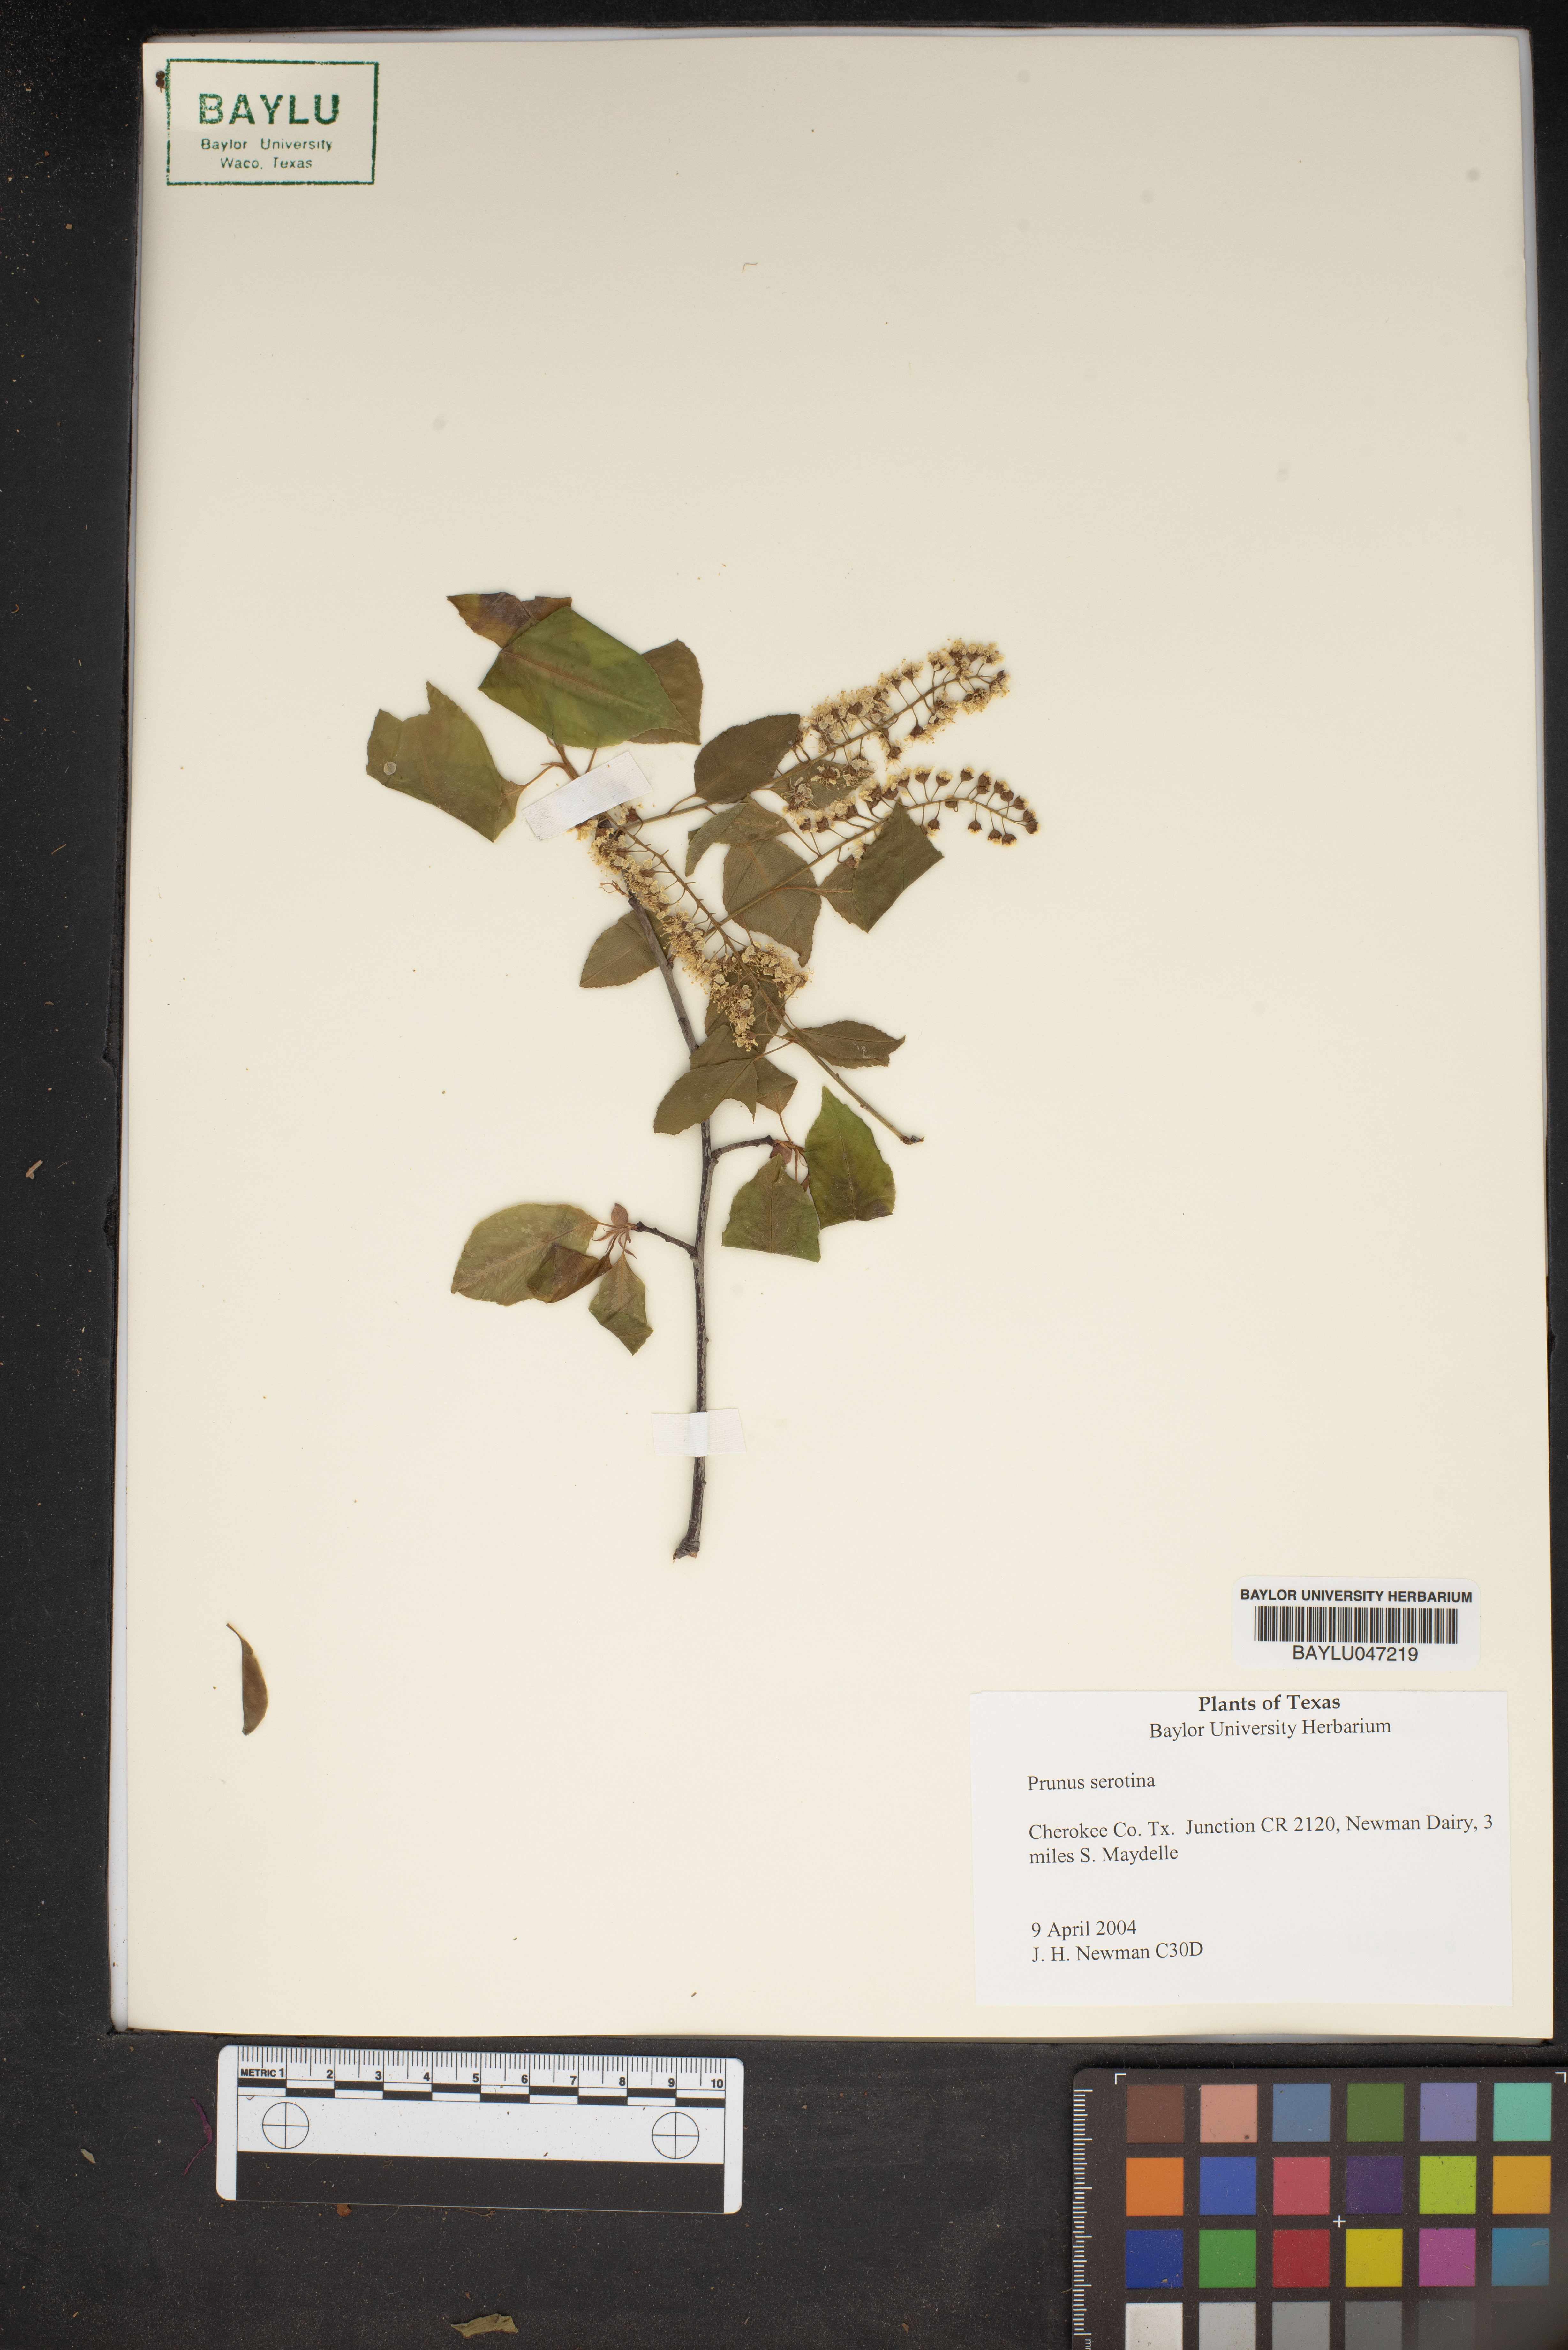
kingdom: Plantae
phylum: Tracheophyta
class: Magnoliopsida
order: Rosales
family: Rosaceae
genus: Prunus
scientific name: Prunus serotina
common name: Black cherry
